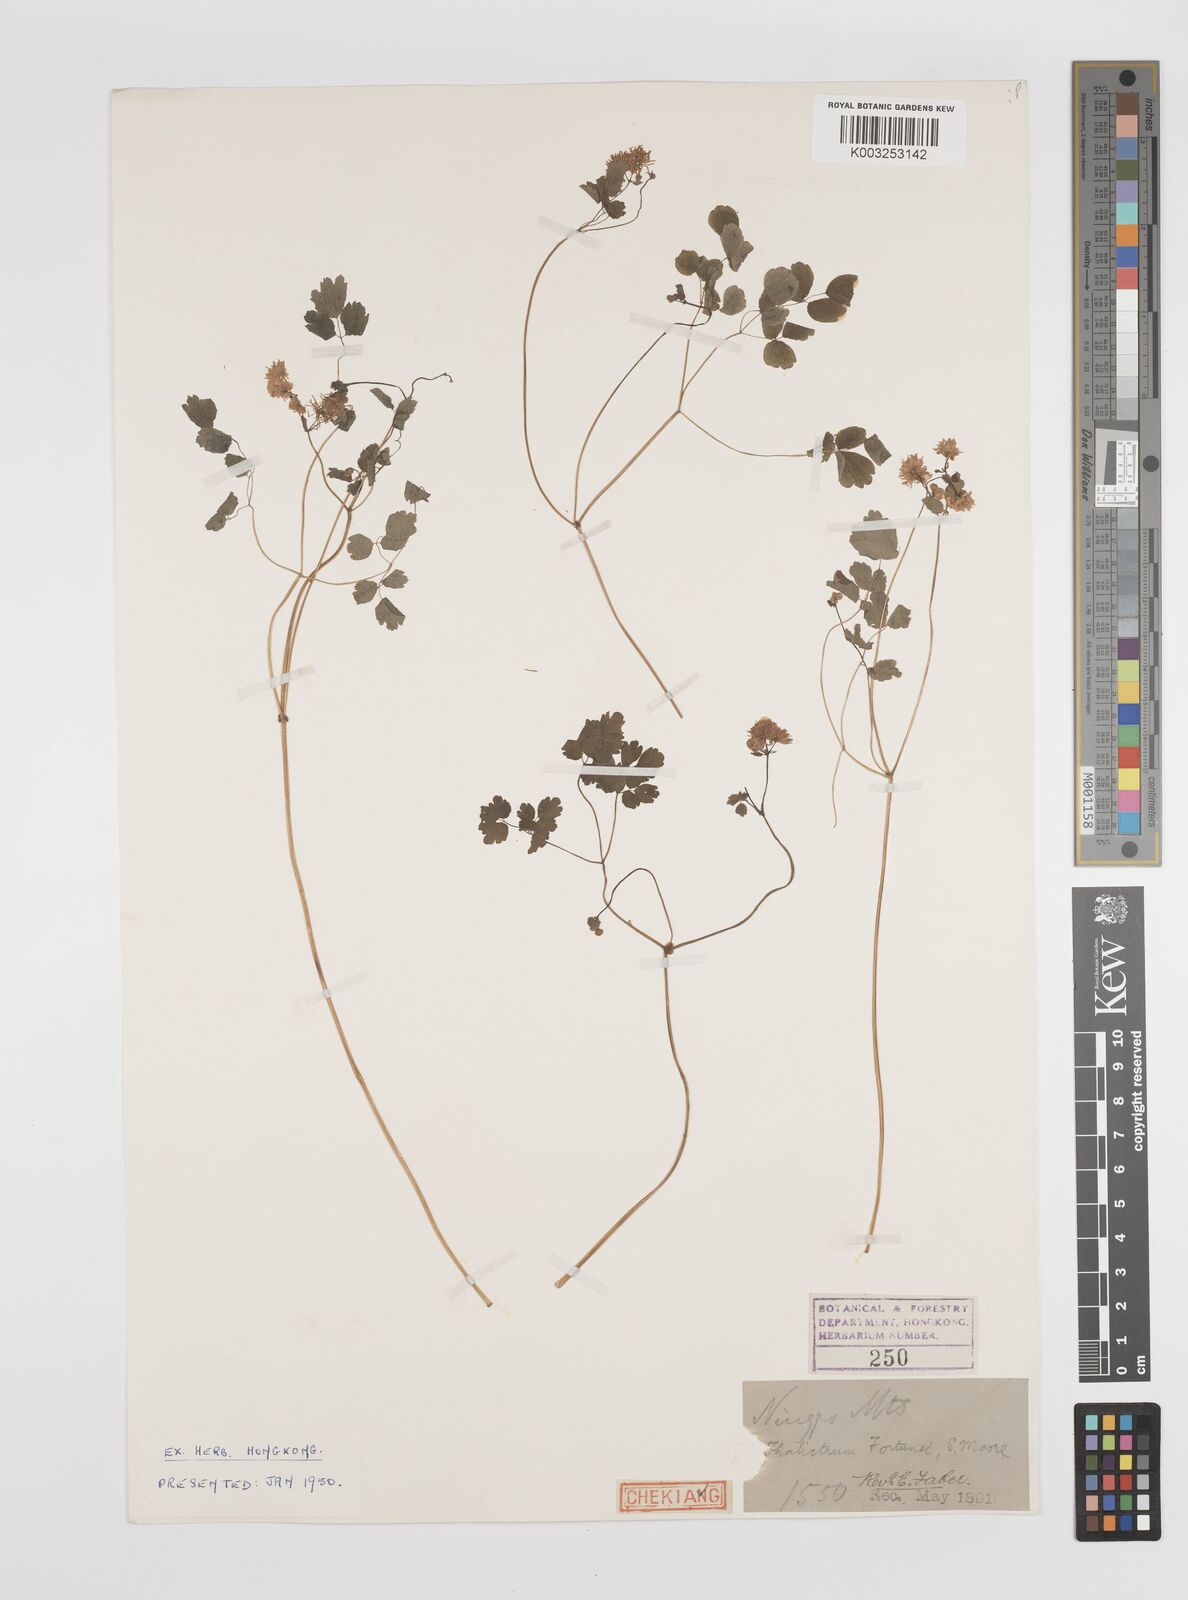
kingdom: Plantae
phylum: Tracheophyta
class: Magnoliopsida
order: Ranunculales
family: Ranunculaceae
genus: Thalictrum
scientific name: Thalictrum fortunei
